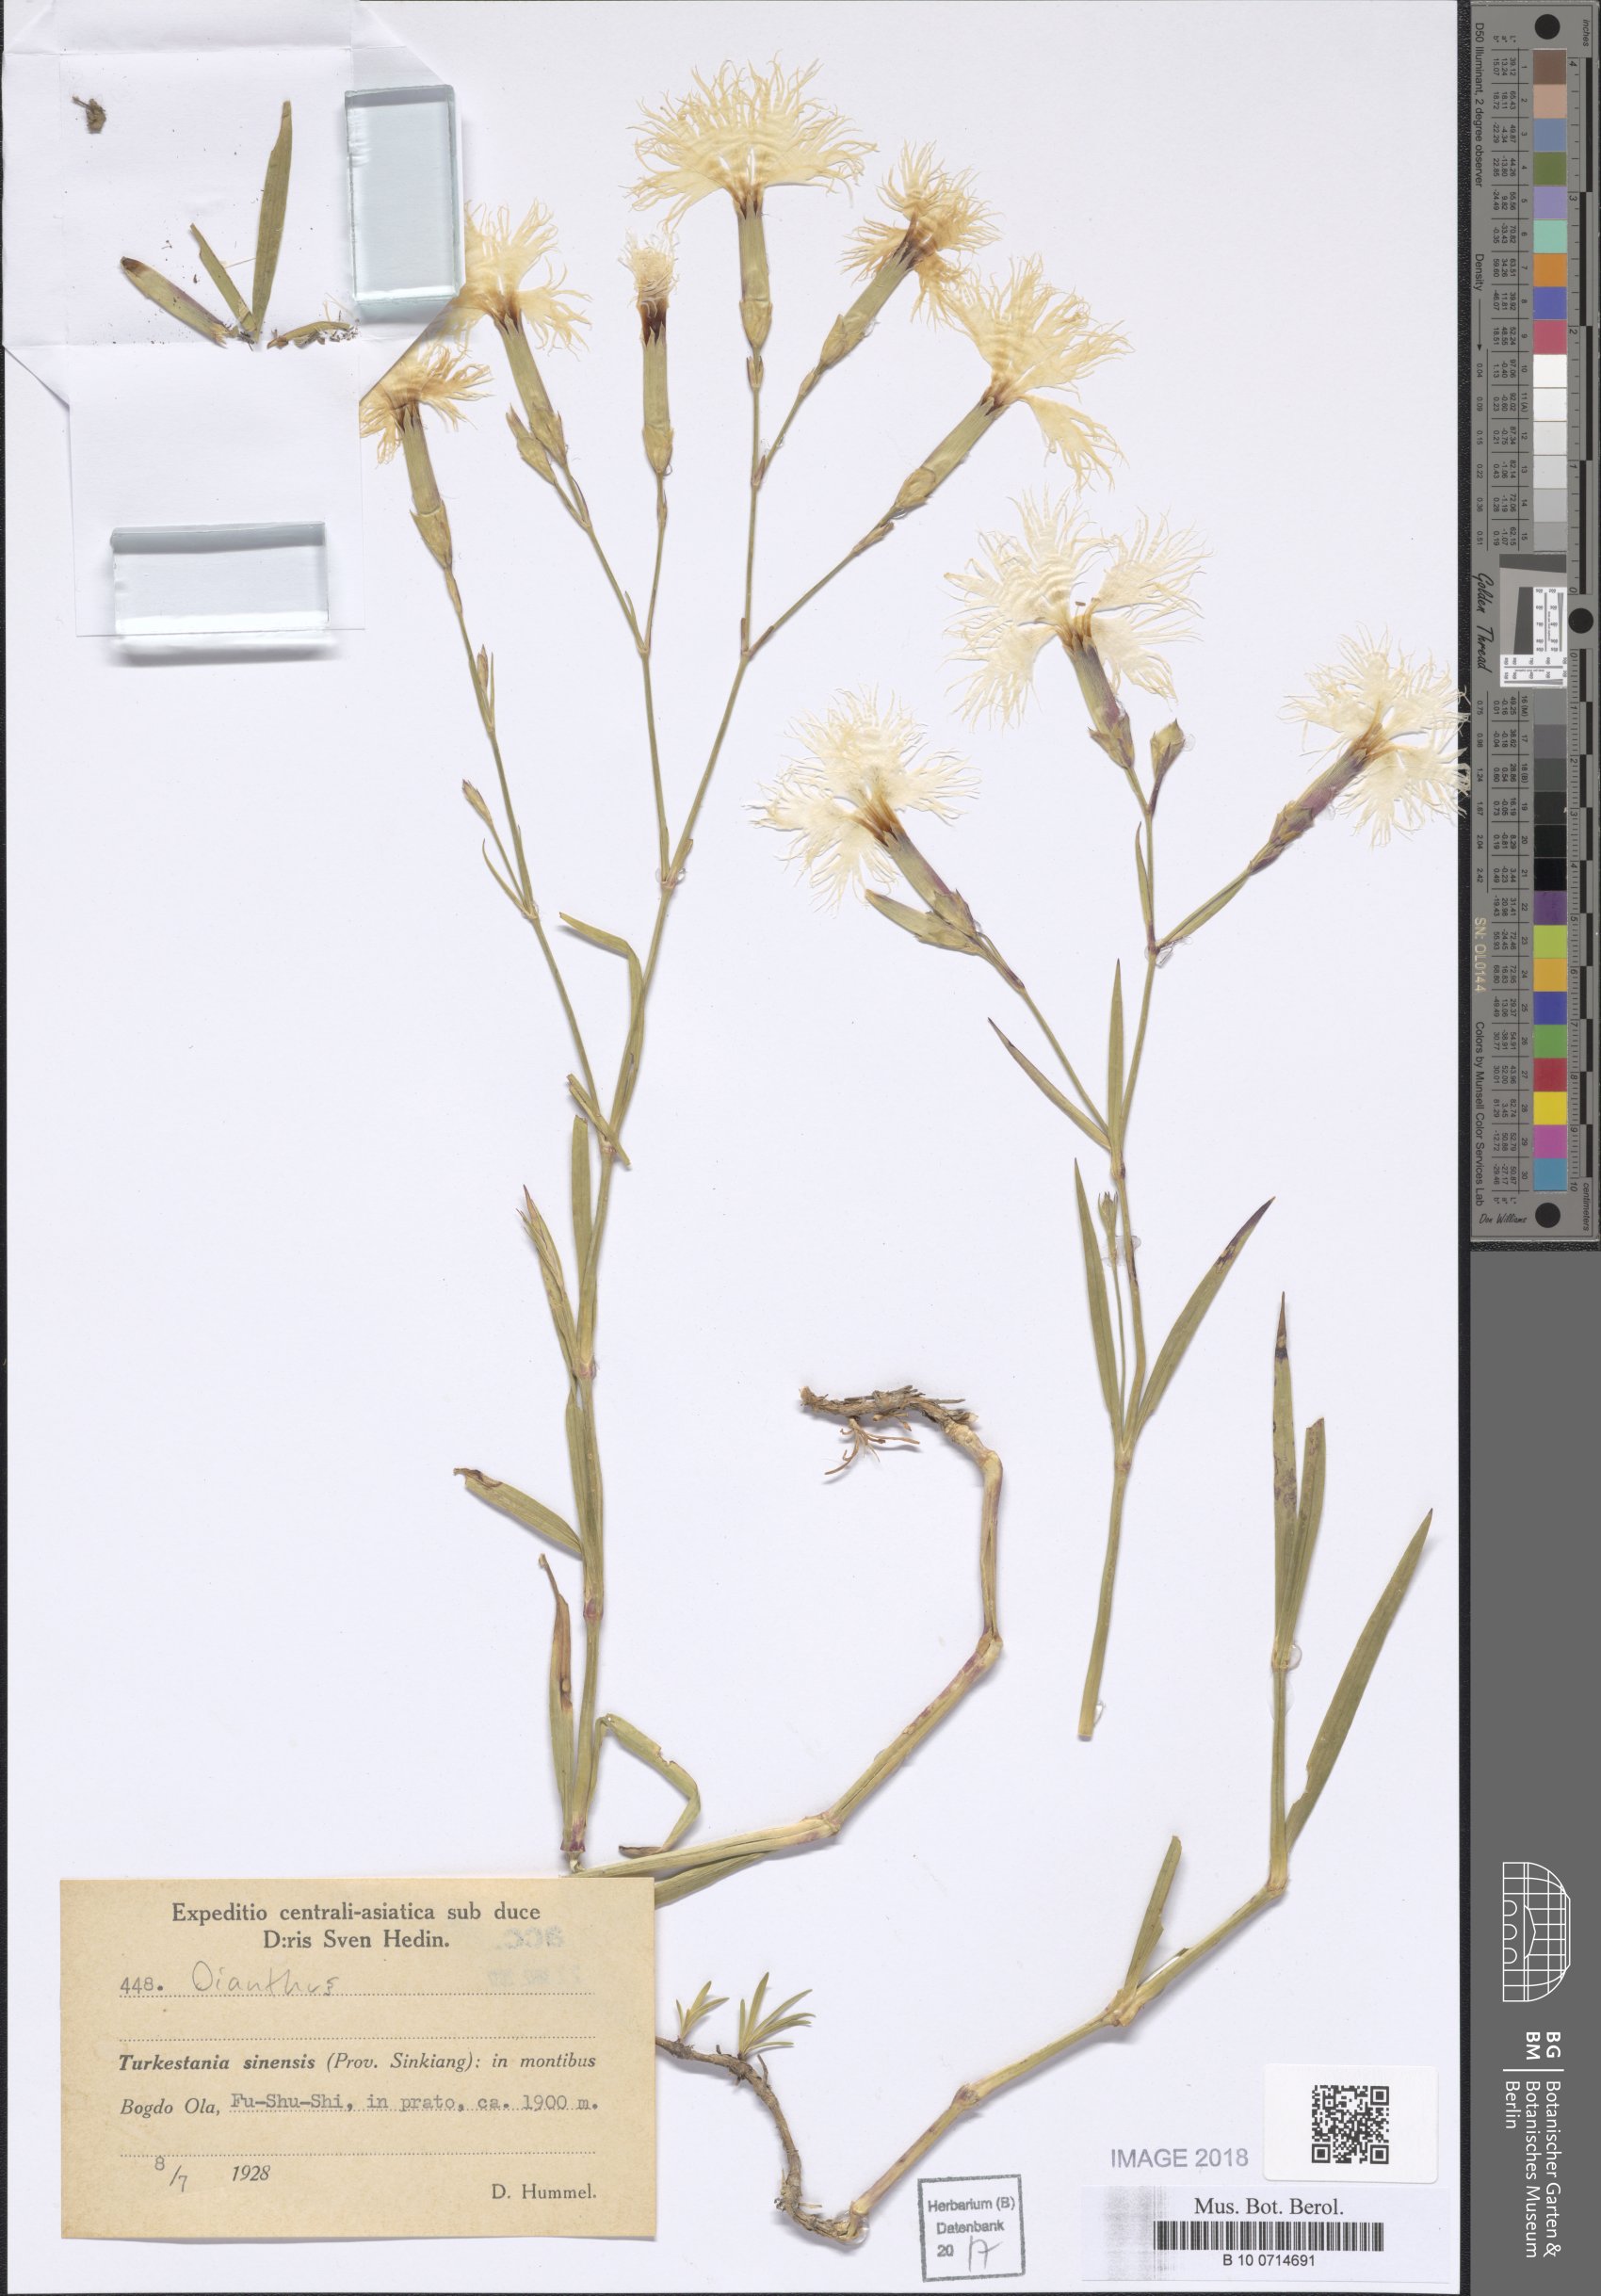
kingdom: Plantae
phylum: Tracheophyta
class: Magnoliopsida
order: Caryophyllales
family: Caryophyllaceae
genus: Dianthus
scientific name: Dianthus
